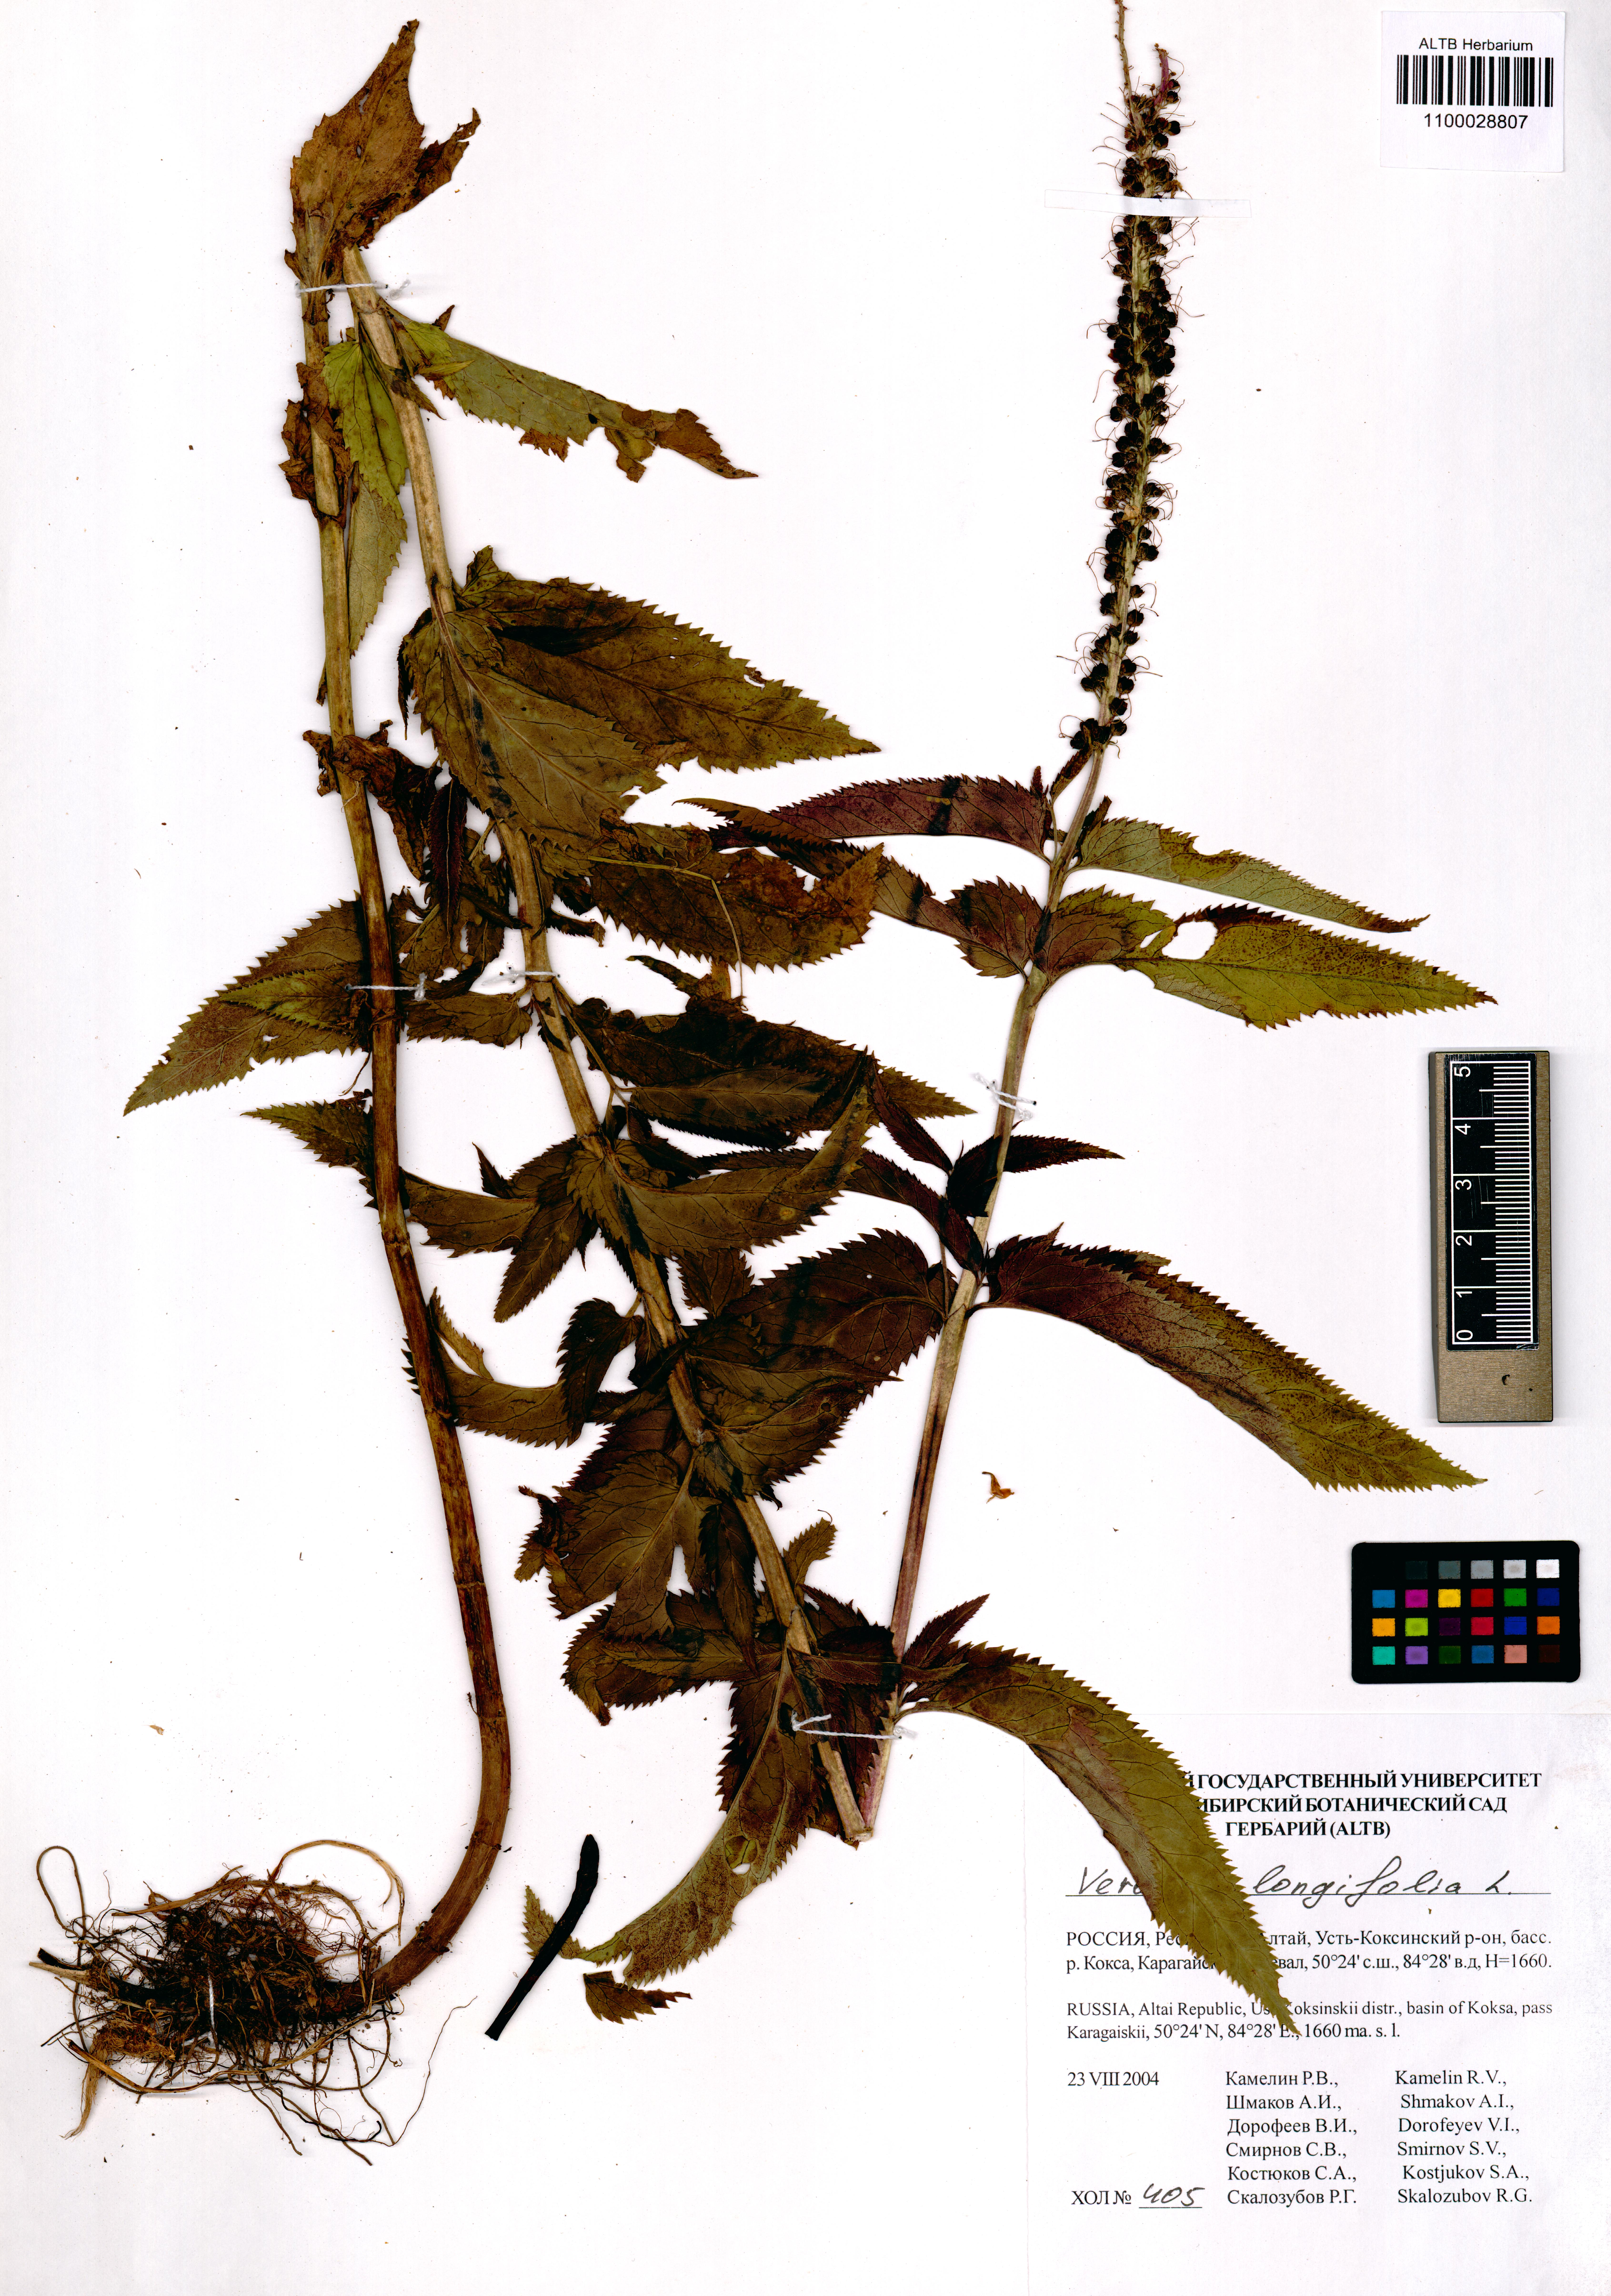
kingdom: Plantae
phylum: Tracheophyta
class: Magnoliopsida
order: Lamiales
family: Plantaginaceae
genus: Veronica
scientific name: Veronica longifolia
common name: Garden speedwell
